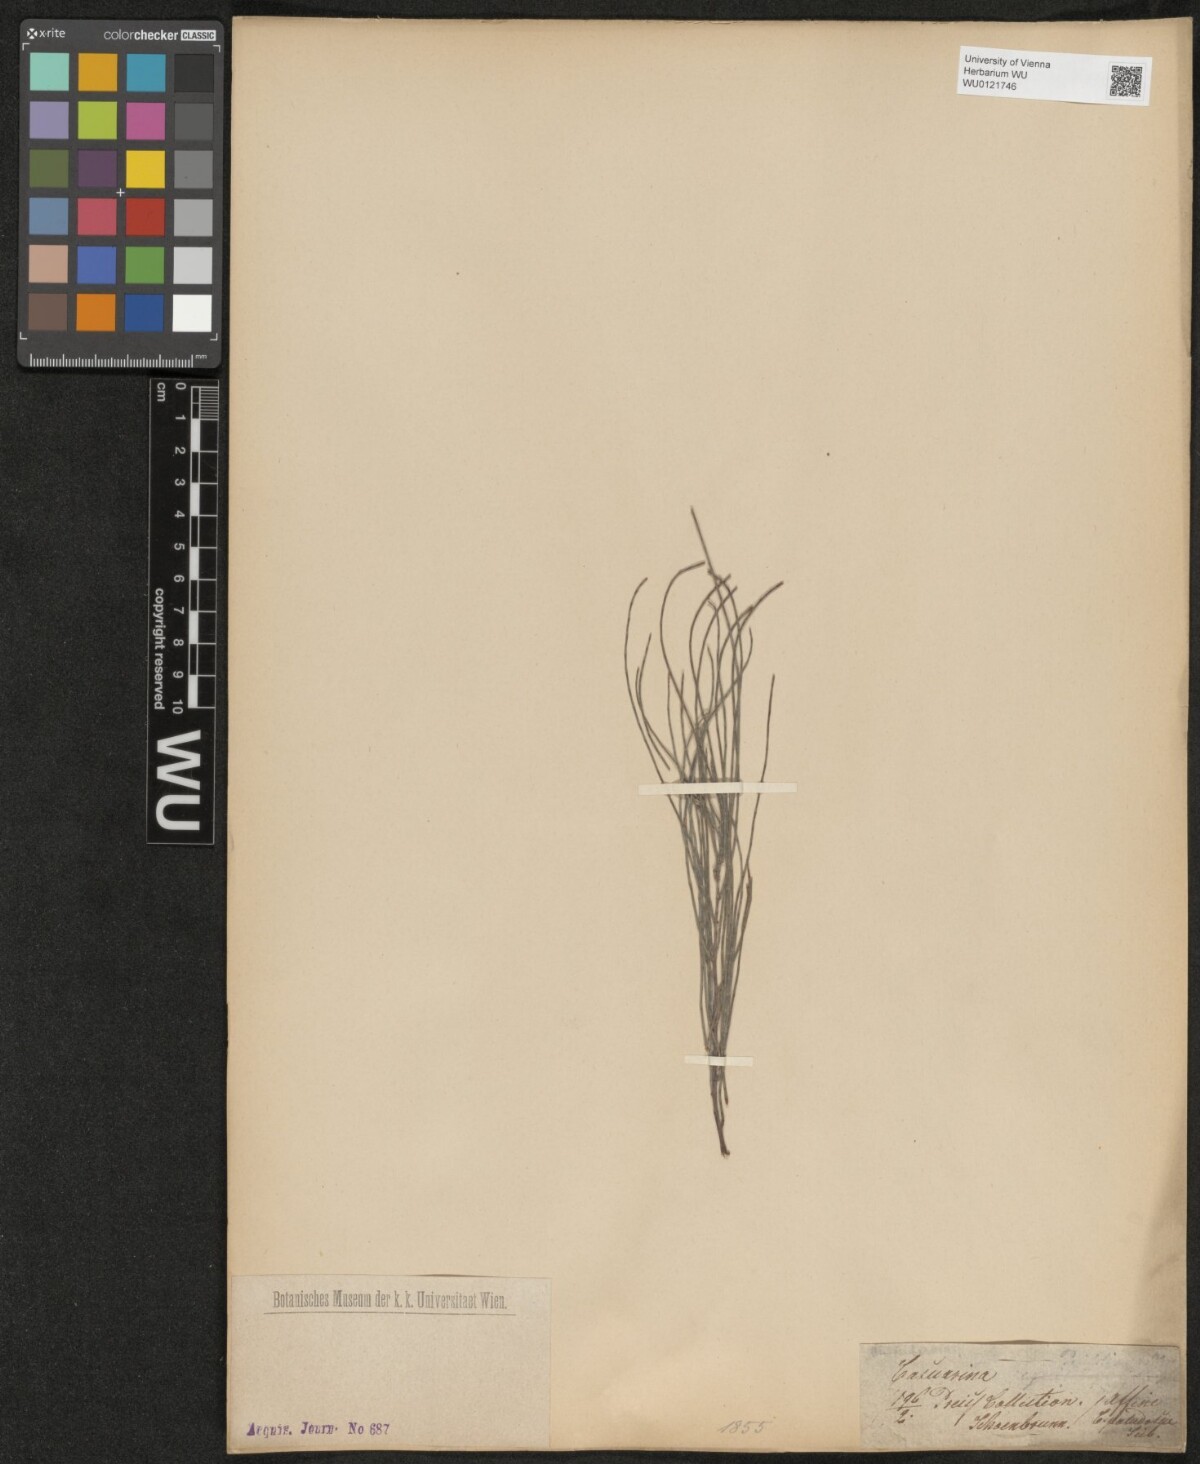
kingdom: Plantae
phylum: Tracheophyta
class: Magnoliopsida
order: Fagales
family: Casuarinaceae
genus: Casuarina
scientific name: Casuarina
